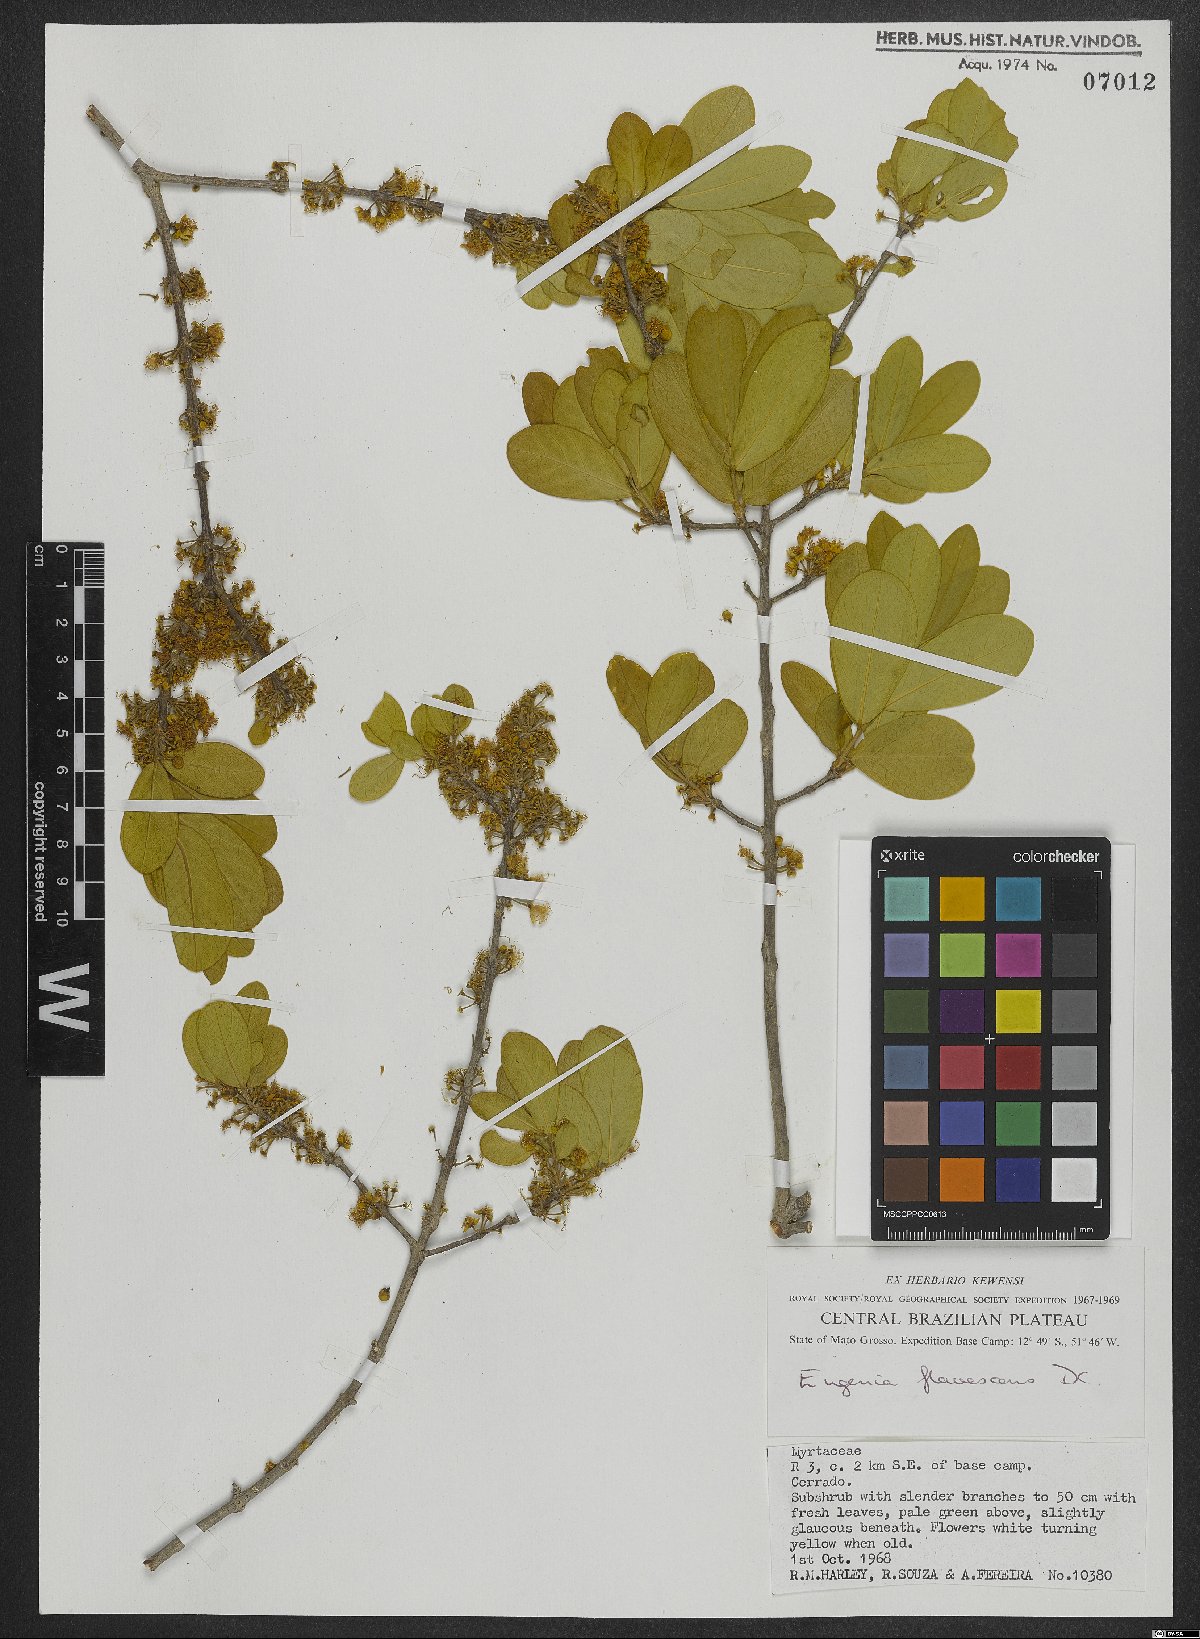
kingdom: Plantae
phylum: Tracheophyta
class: Magnoliopsida
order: Myrtales
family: Myrtaceae
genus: Eugenia
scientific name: Eugenia flavescens
